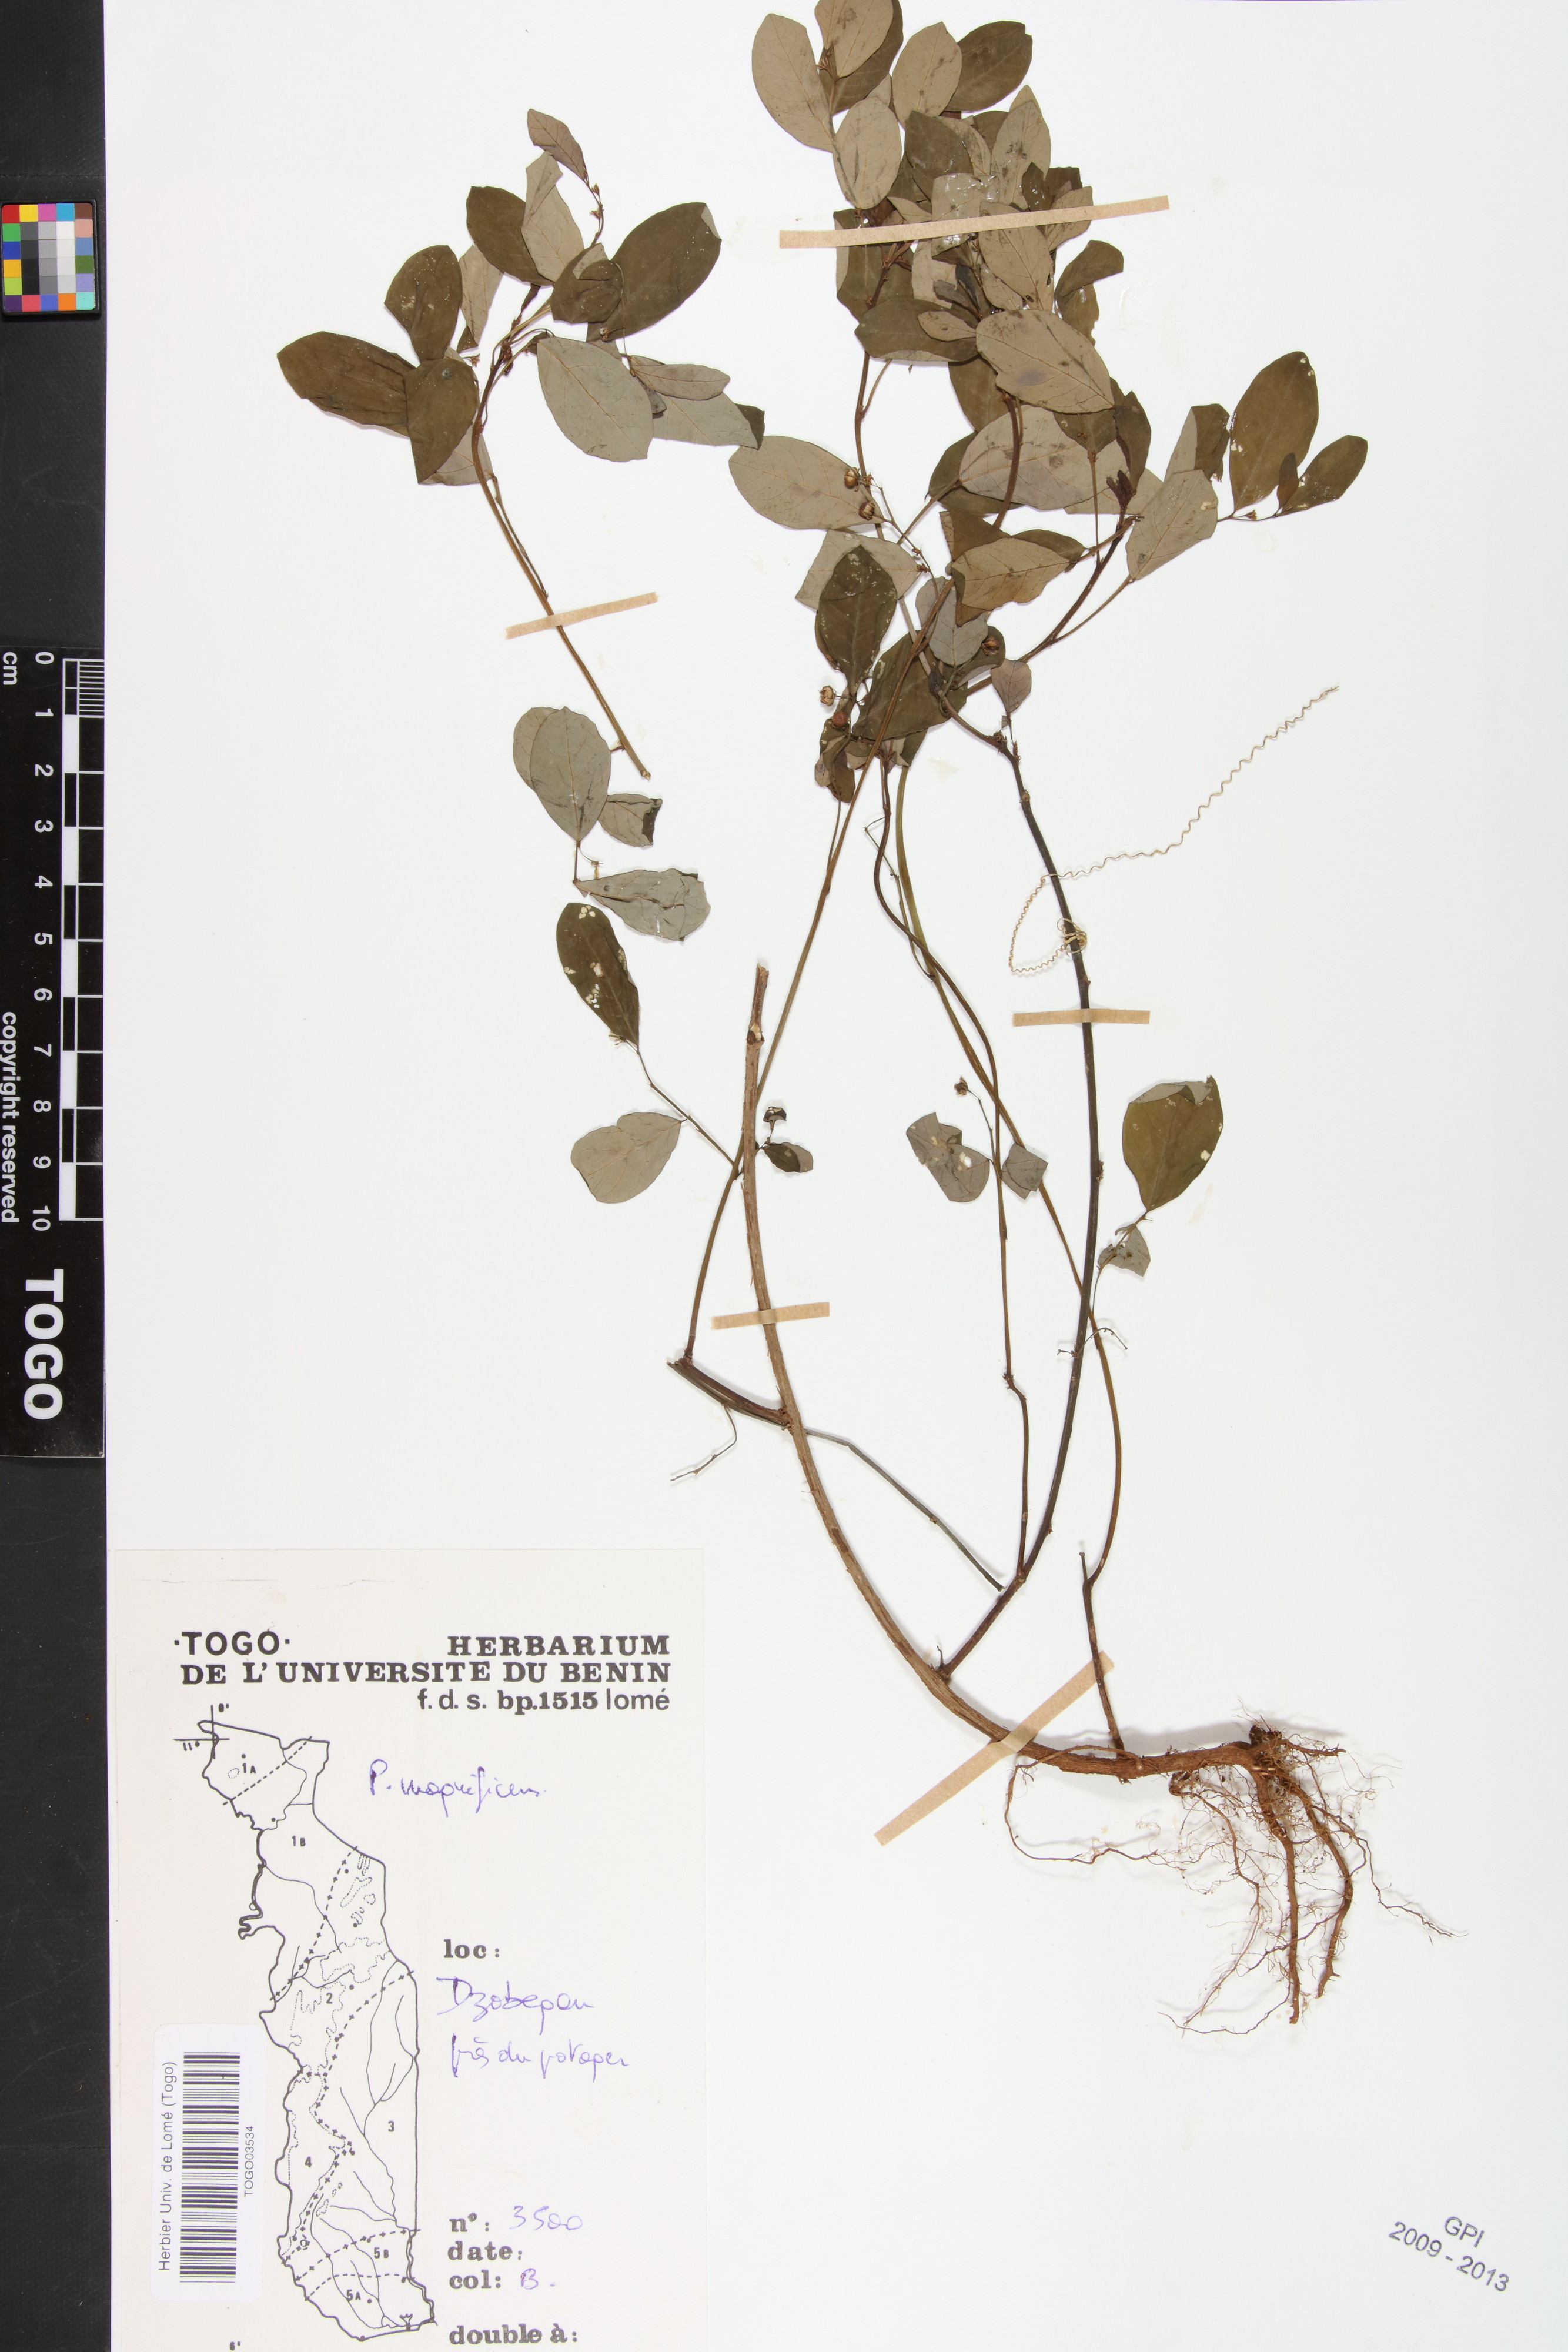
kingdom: Plantae
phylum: Tracheophyta
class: Magnoliopsida
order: Malpighiales
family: Phyllanthaceae
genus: Phyllanthus
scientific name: Phyllanthus magnificens
